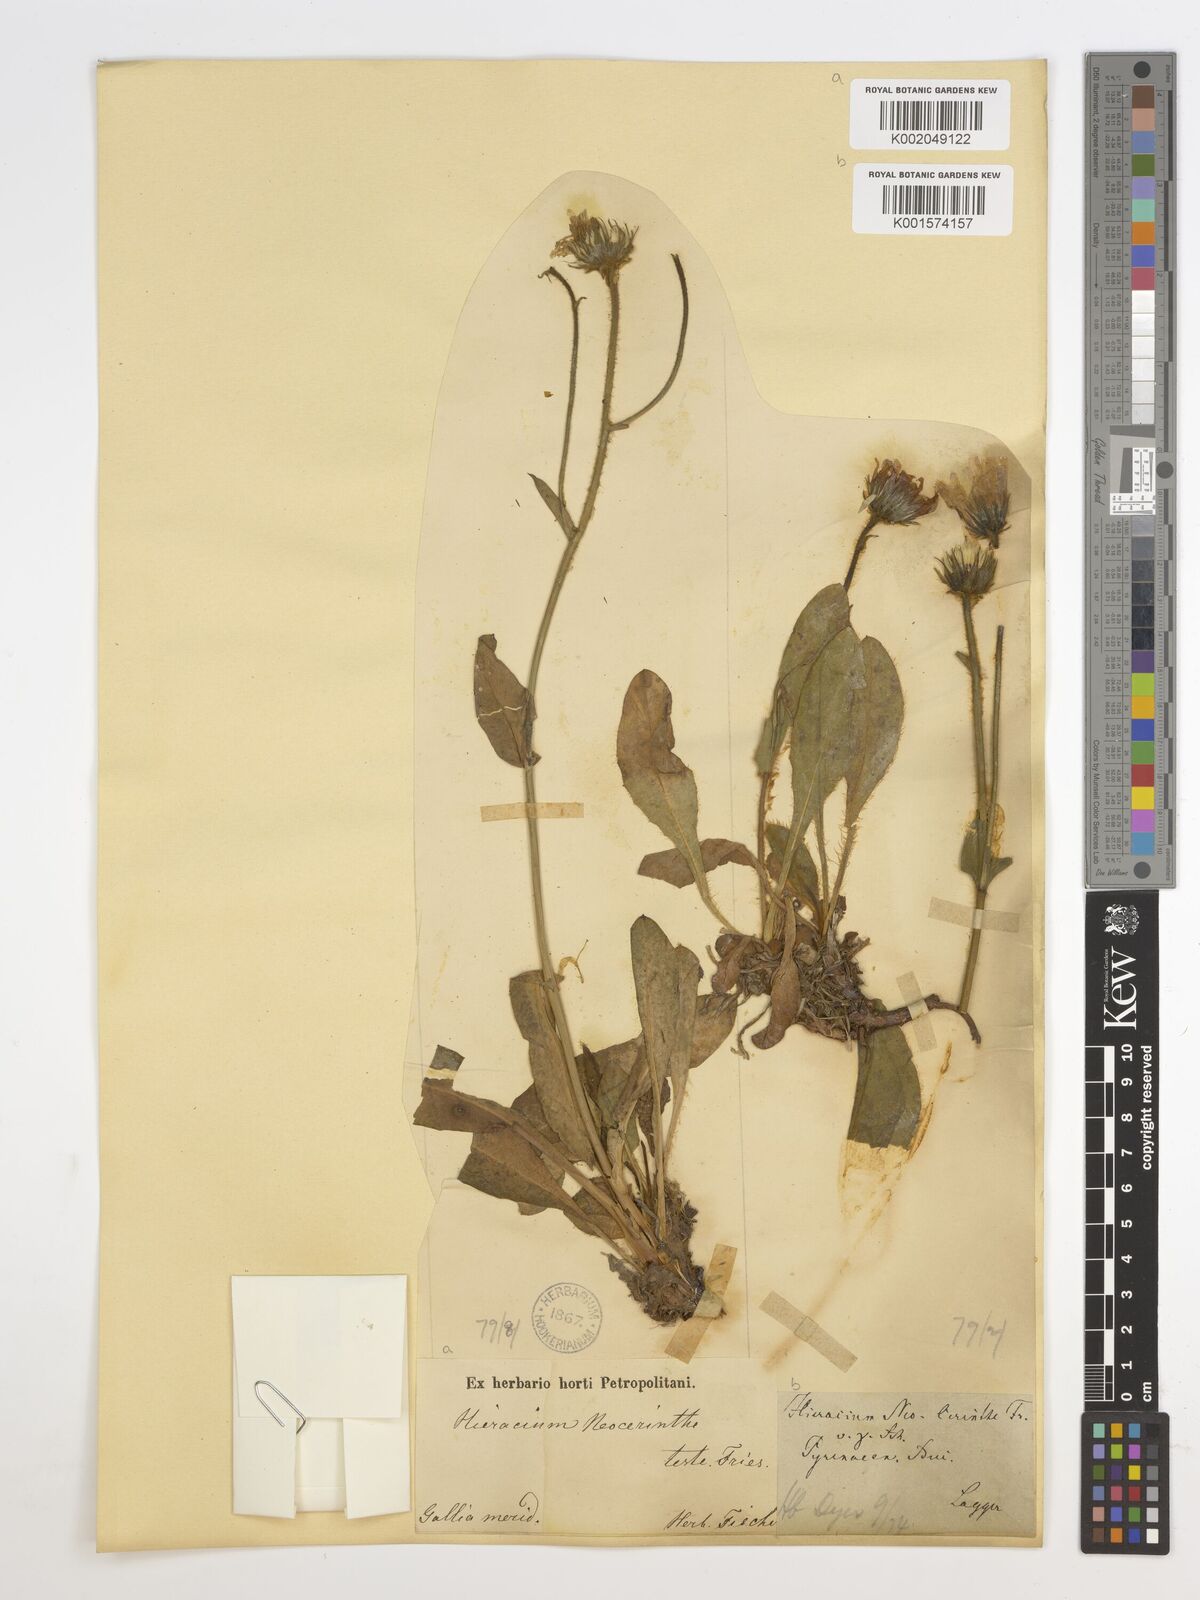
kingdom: Plantae
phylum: Tracheophyta
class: Magnoliopsida
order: Asterales
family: Asteraceae
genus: Hieracium
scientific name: Hieracium neocerinthe
